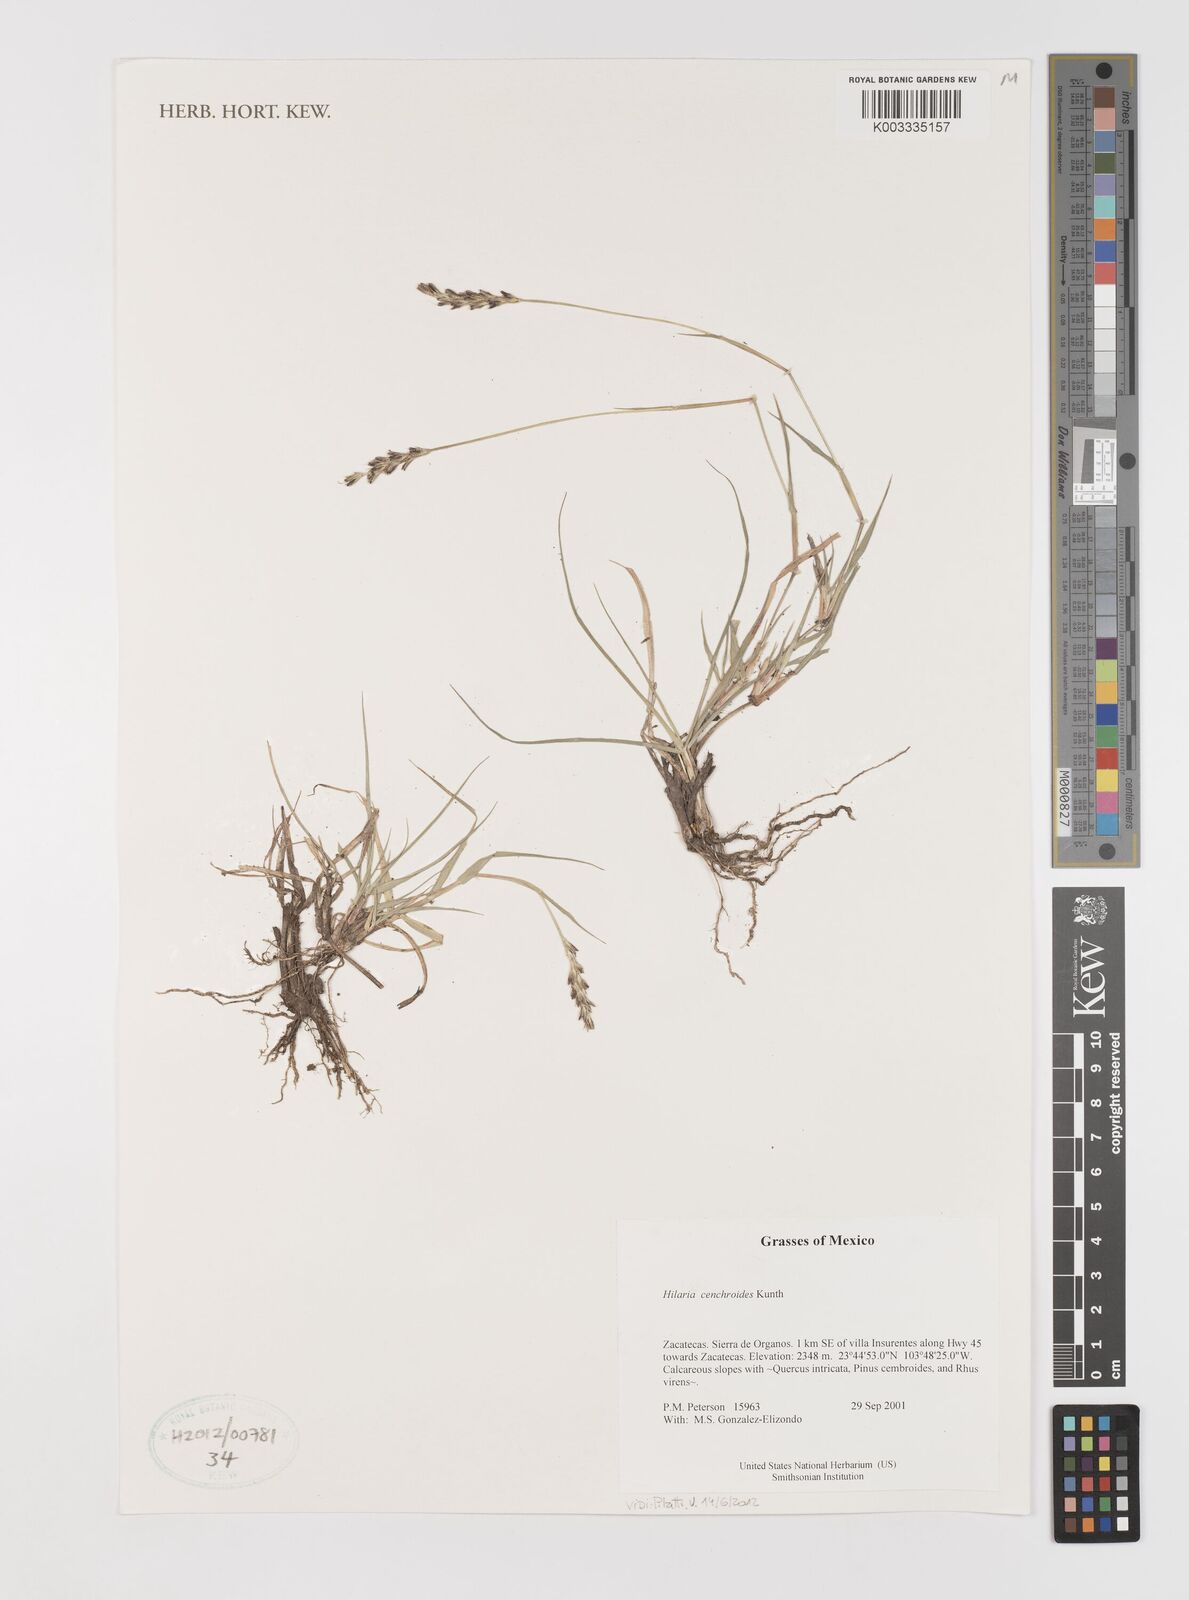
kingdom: Plantae
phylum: Tracheophyta
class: Liliopsida
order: Poales
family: Poaceae
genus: Hilaria
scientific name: Hilaria cenchroides
